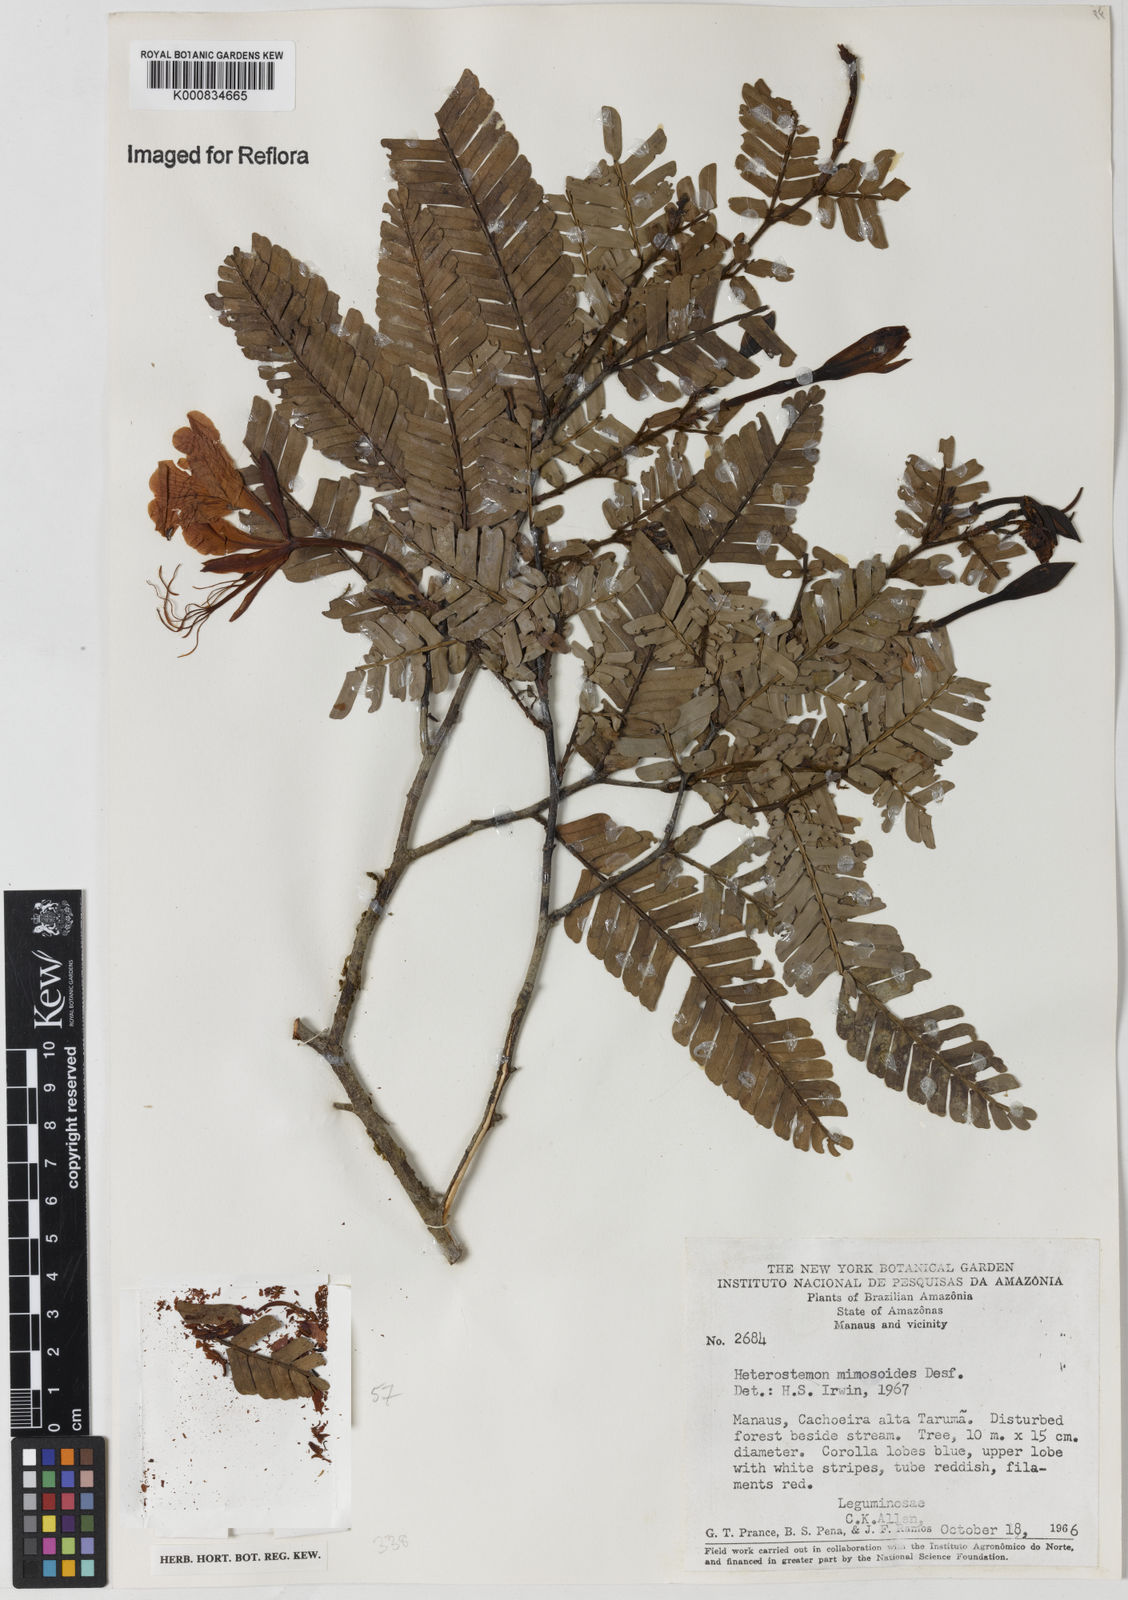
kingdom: Plantae
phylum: Tracheophyta
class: Magnoliopsida
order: Fabales
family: Fabaceae
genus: Heterostemon
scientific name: Heterostemon mimosoides
